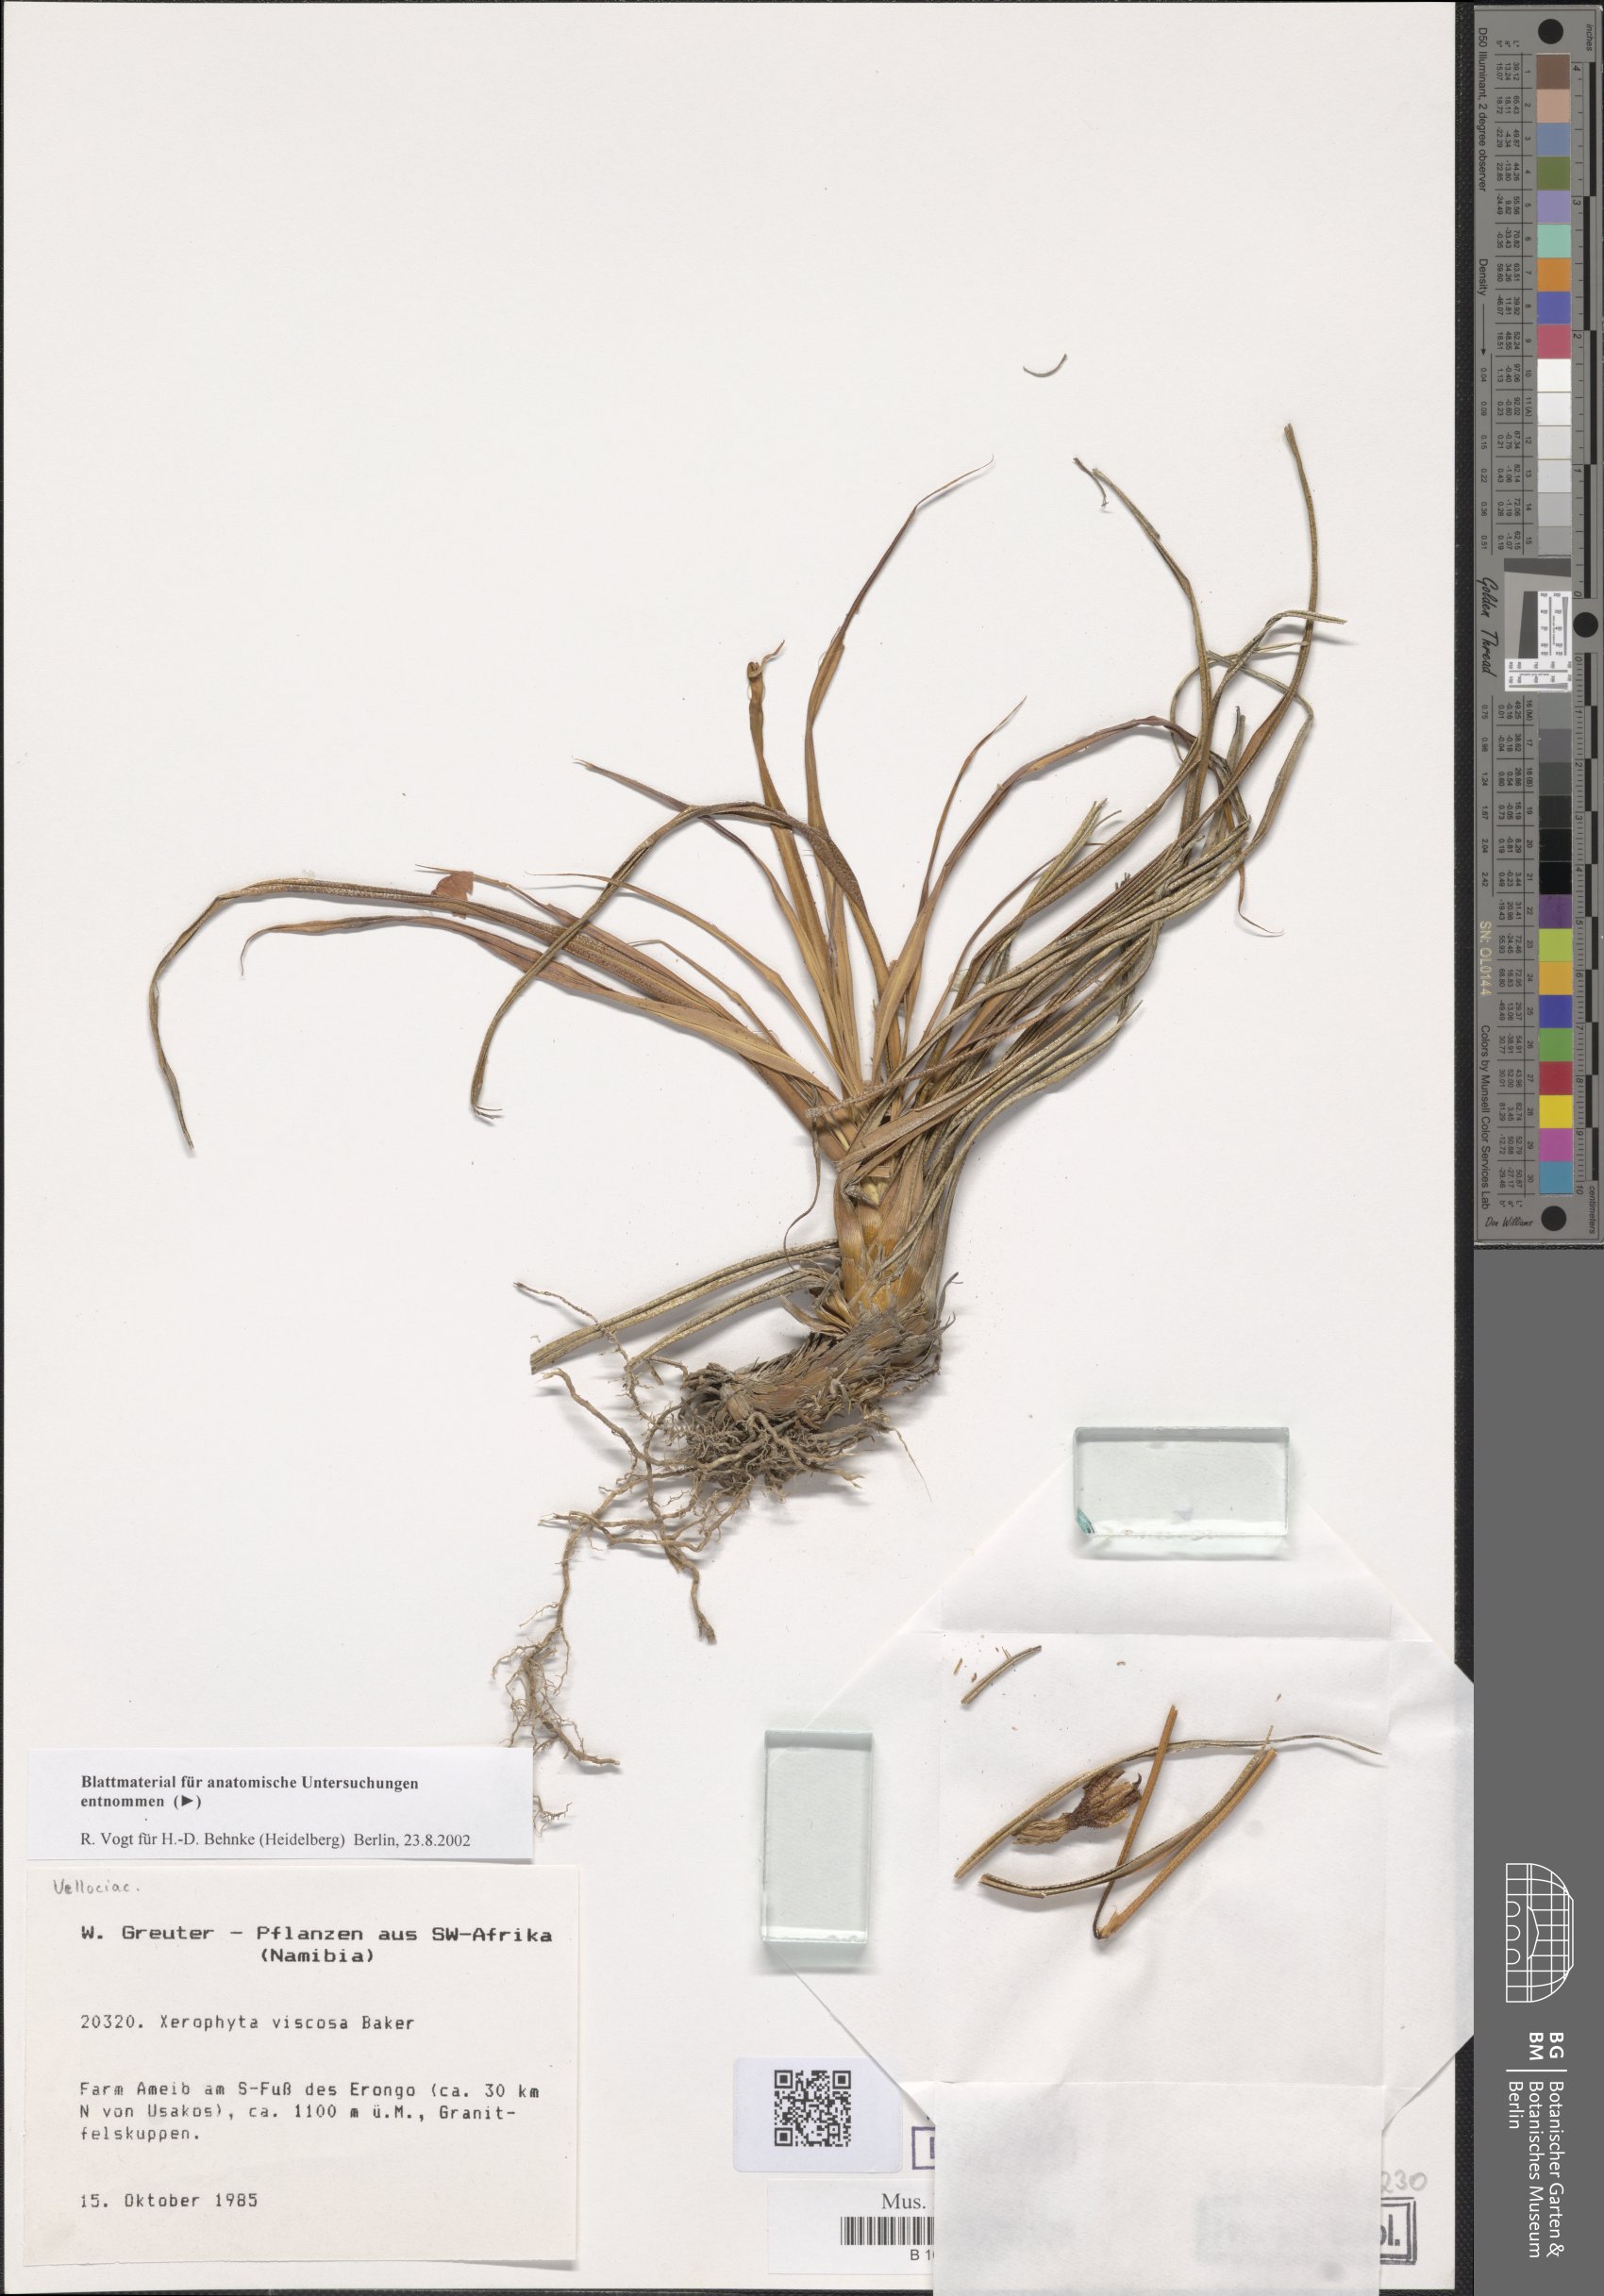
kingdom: Plantae
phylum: Tracheophyta
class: Liliopsida
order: Pandanales
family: Velloziaceae
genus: Xerophyta
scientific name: Xerophyta viscosa
